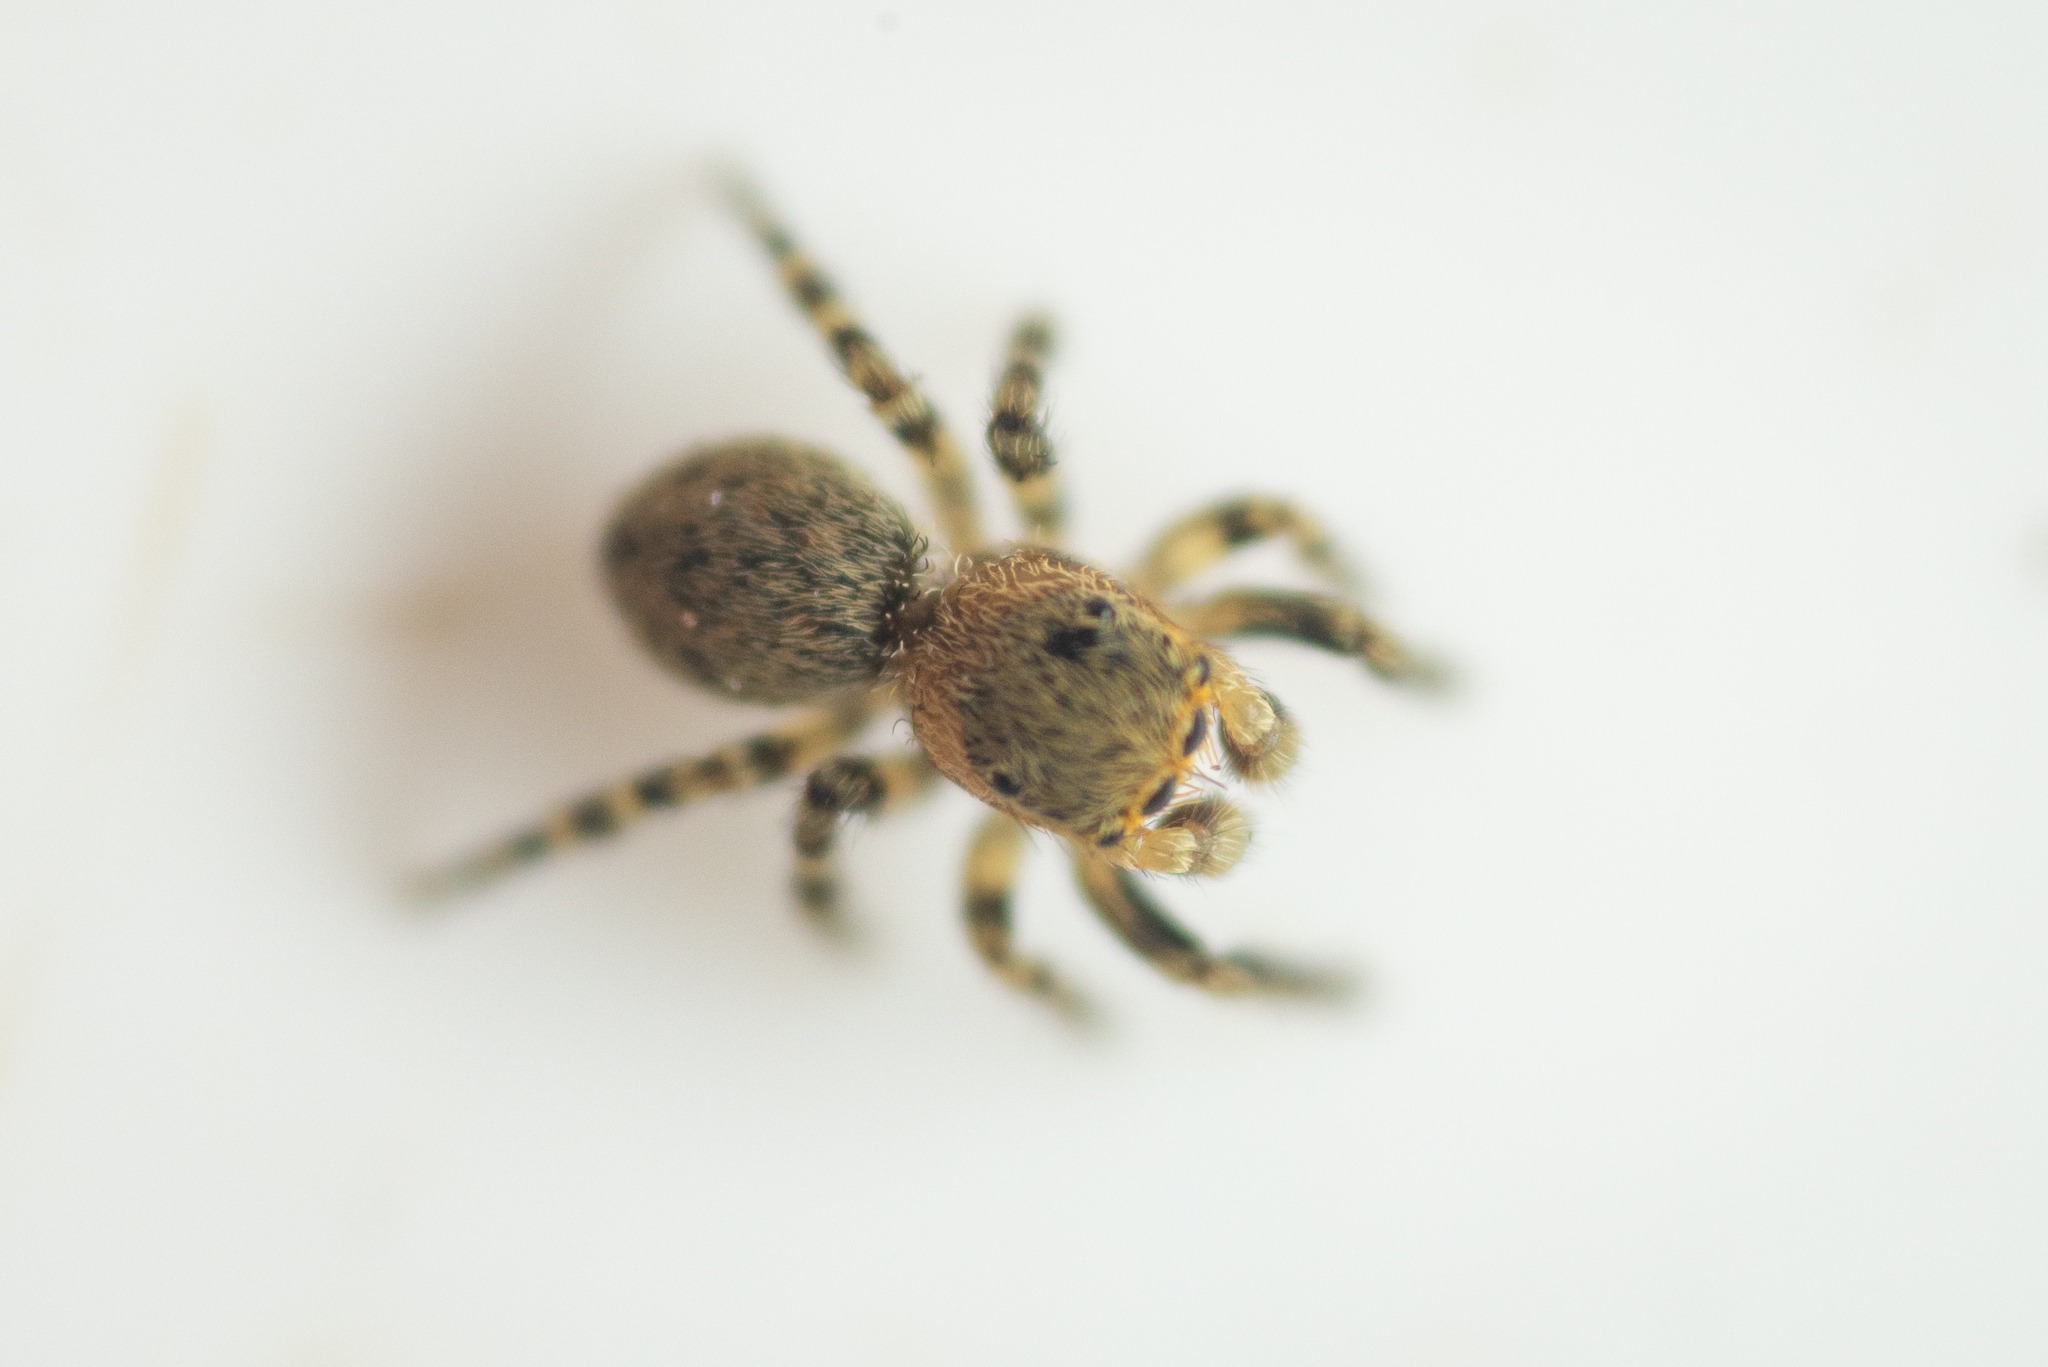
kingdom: Animalia
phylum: Arthropoda
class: Arachnida
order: Araneae
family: Salticidae
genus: Talavera
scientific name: Talavera aequipes
